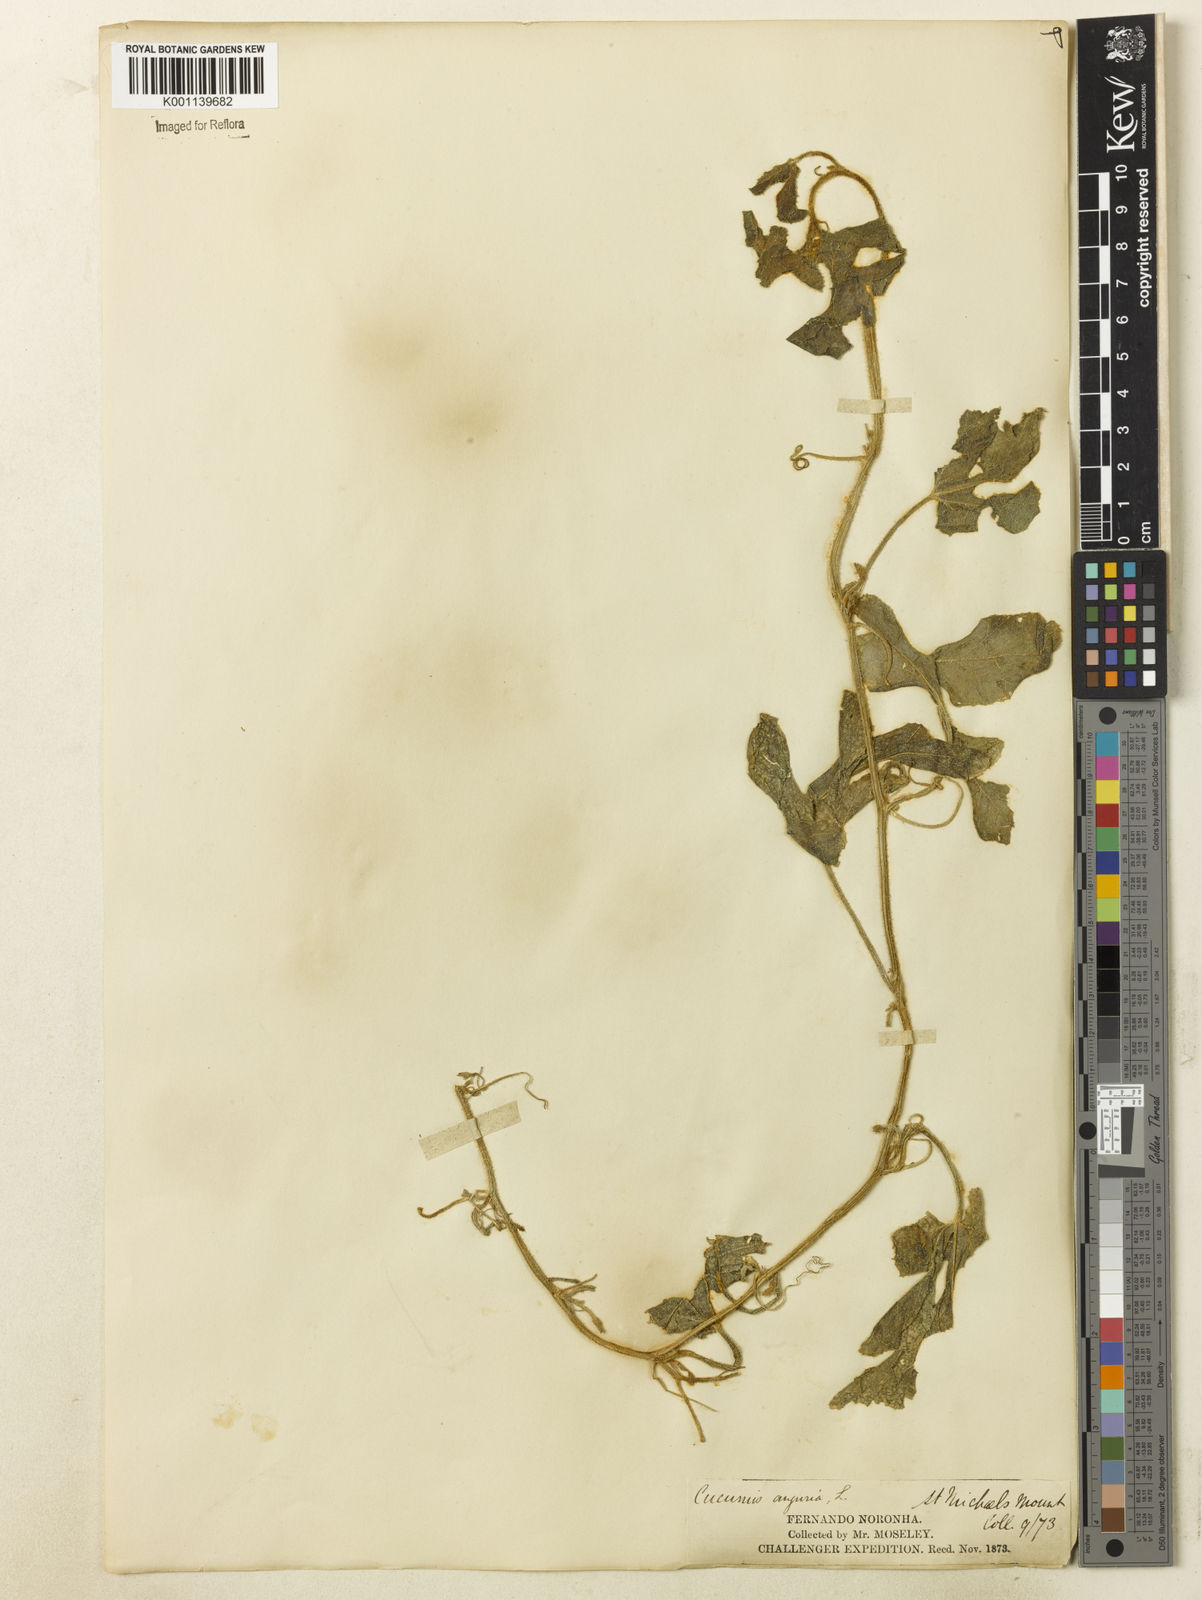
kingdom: Plantae
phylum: Tracheophyta
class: Magnoliopsida
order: Cucurbitales
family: Cucurbitaceae
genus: Cucumis
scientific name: Cucumis anguria
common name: West indian gherkin
